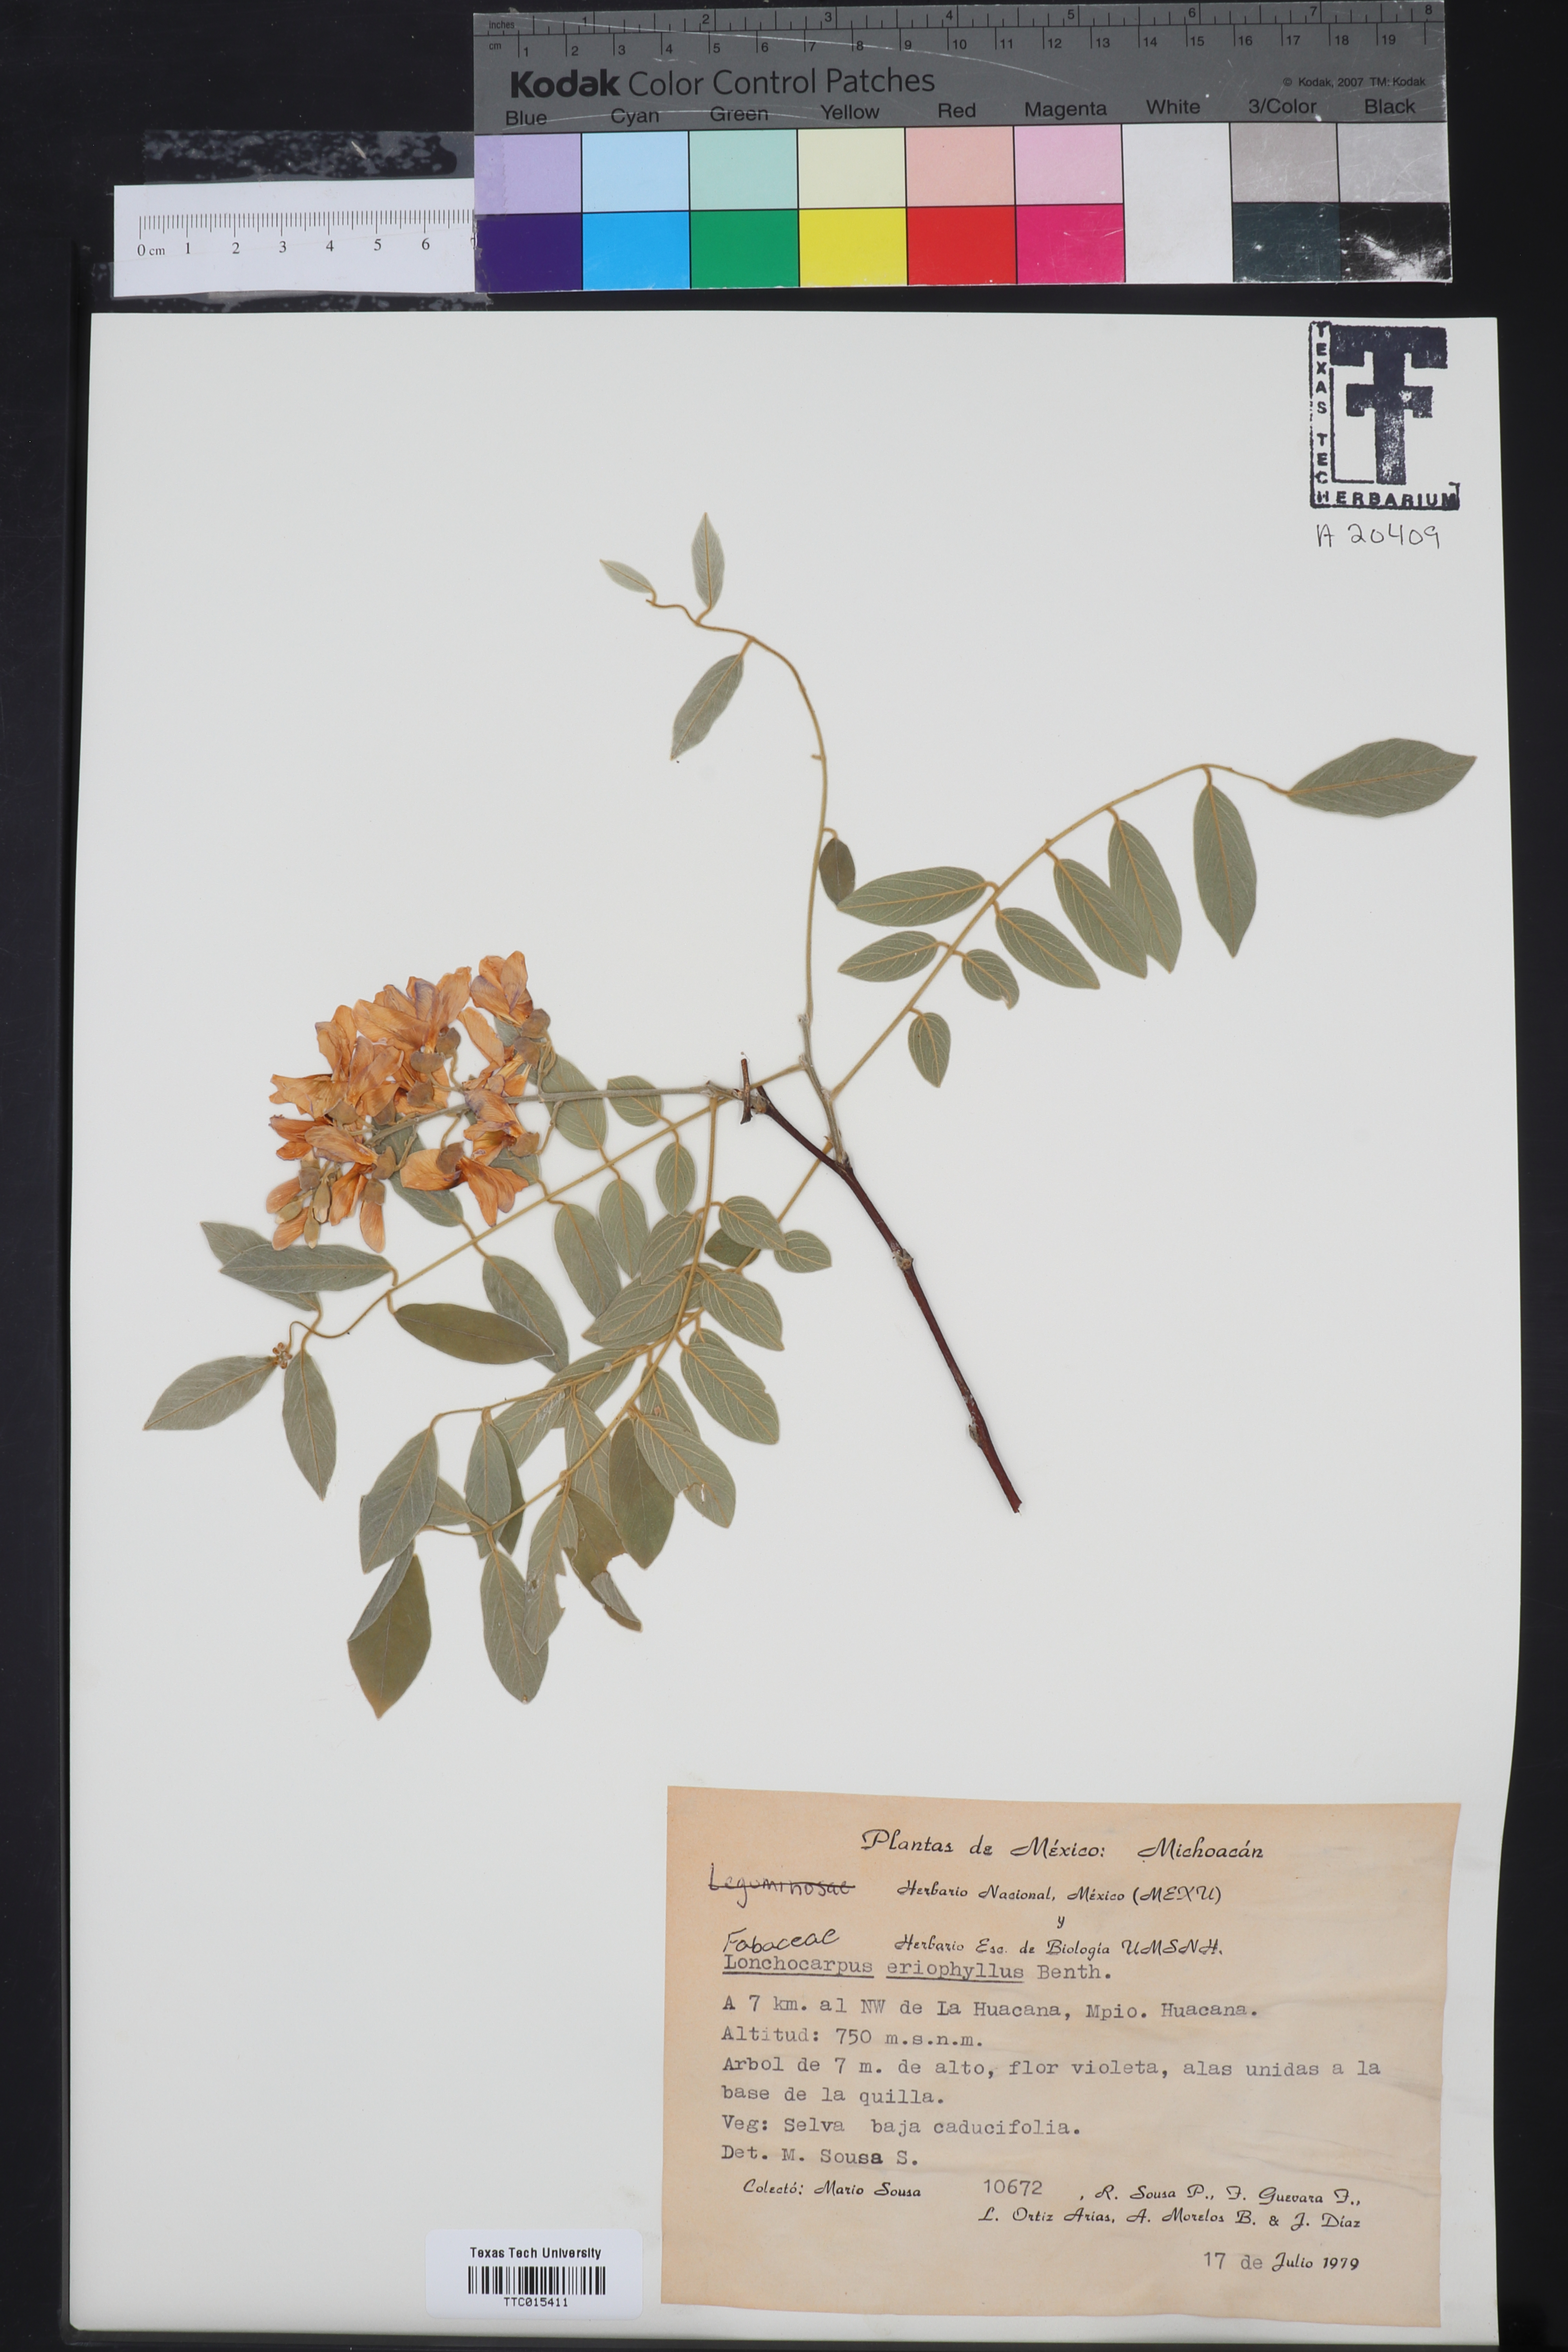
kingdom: Plantae
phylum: Tracheophyta
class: Magnoliopsida
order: Fabales
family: Fabaceae
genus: Lonchocarpus
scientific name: Lonchocarpus eriophyllus
